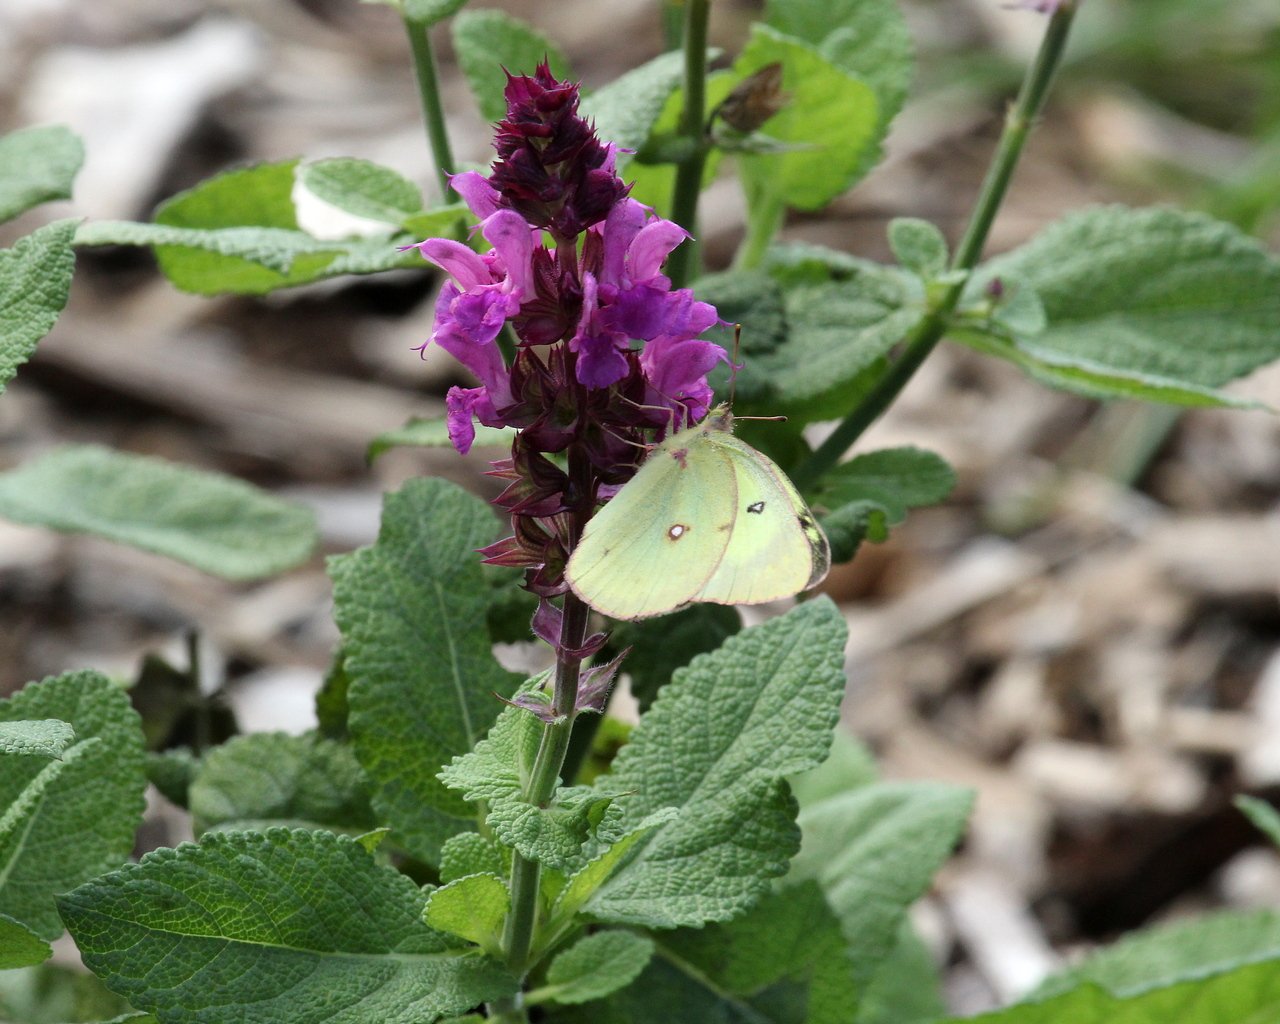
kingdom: Animalia
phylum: Arthropoda
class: Insecta
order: Lepidoptera
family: Pieridae
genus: Colias
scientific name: Colias philodice
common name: Clouded Sulphur
